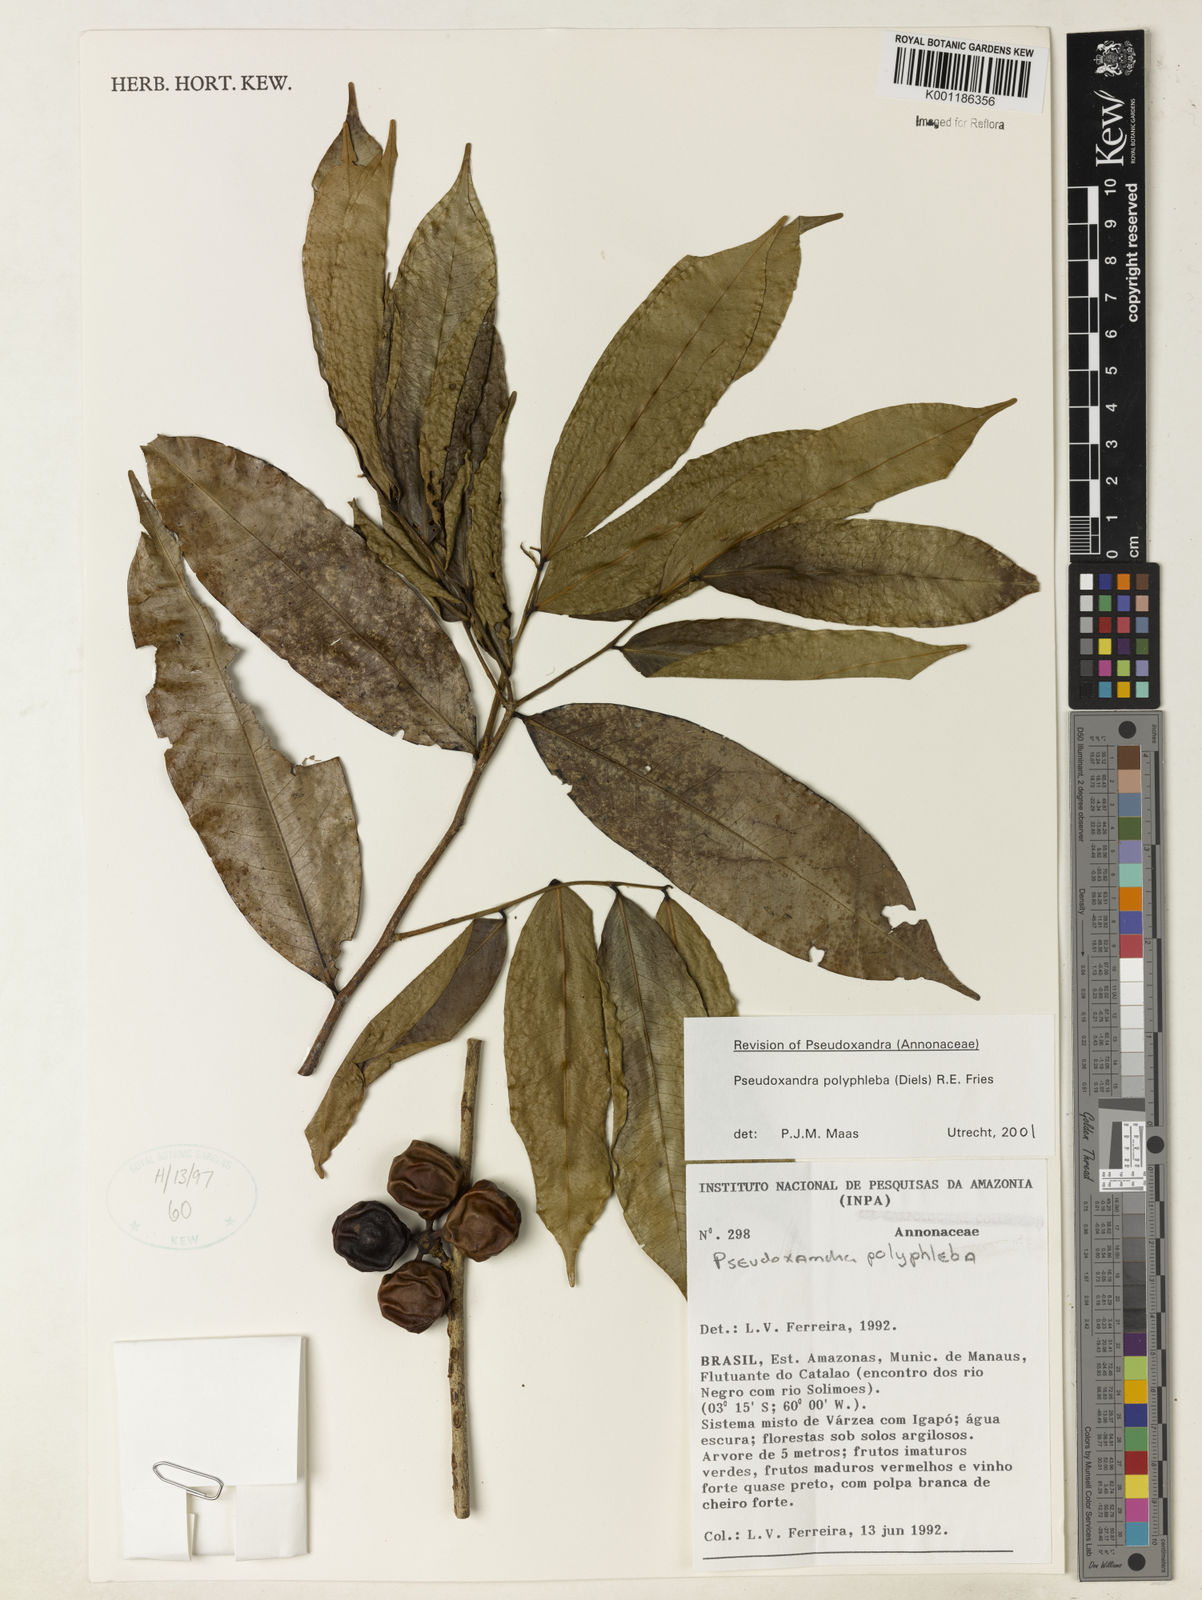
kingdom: Plantae
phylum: Tracheophyta
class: Magnoliopsida
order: Magnoliales
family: Annonaceae
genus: Pseudoxandra
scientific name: Pseudoxandra polyphleba
